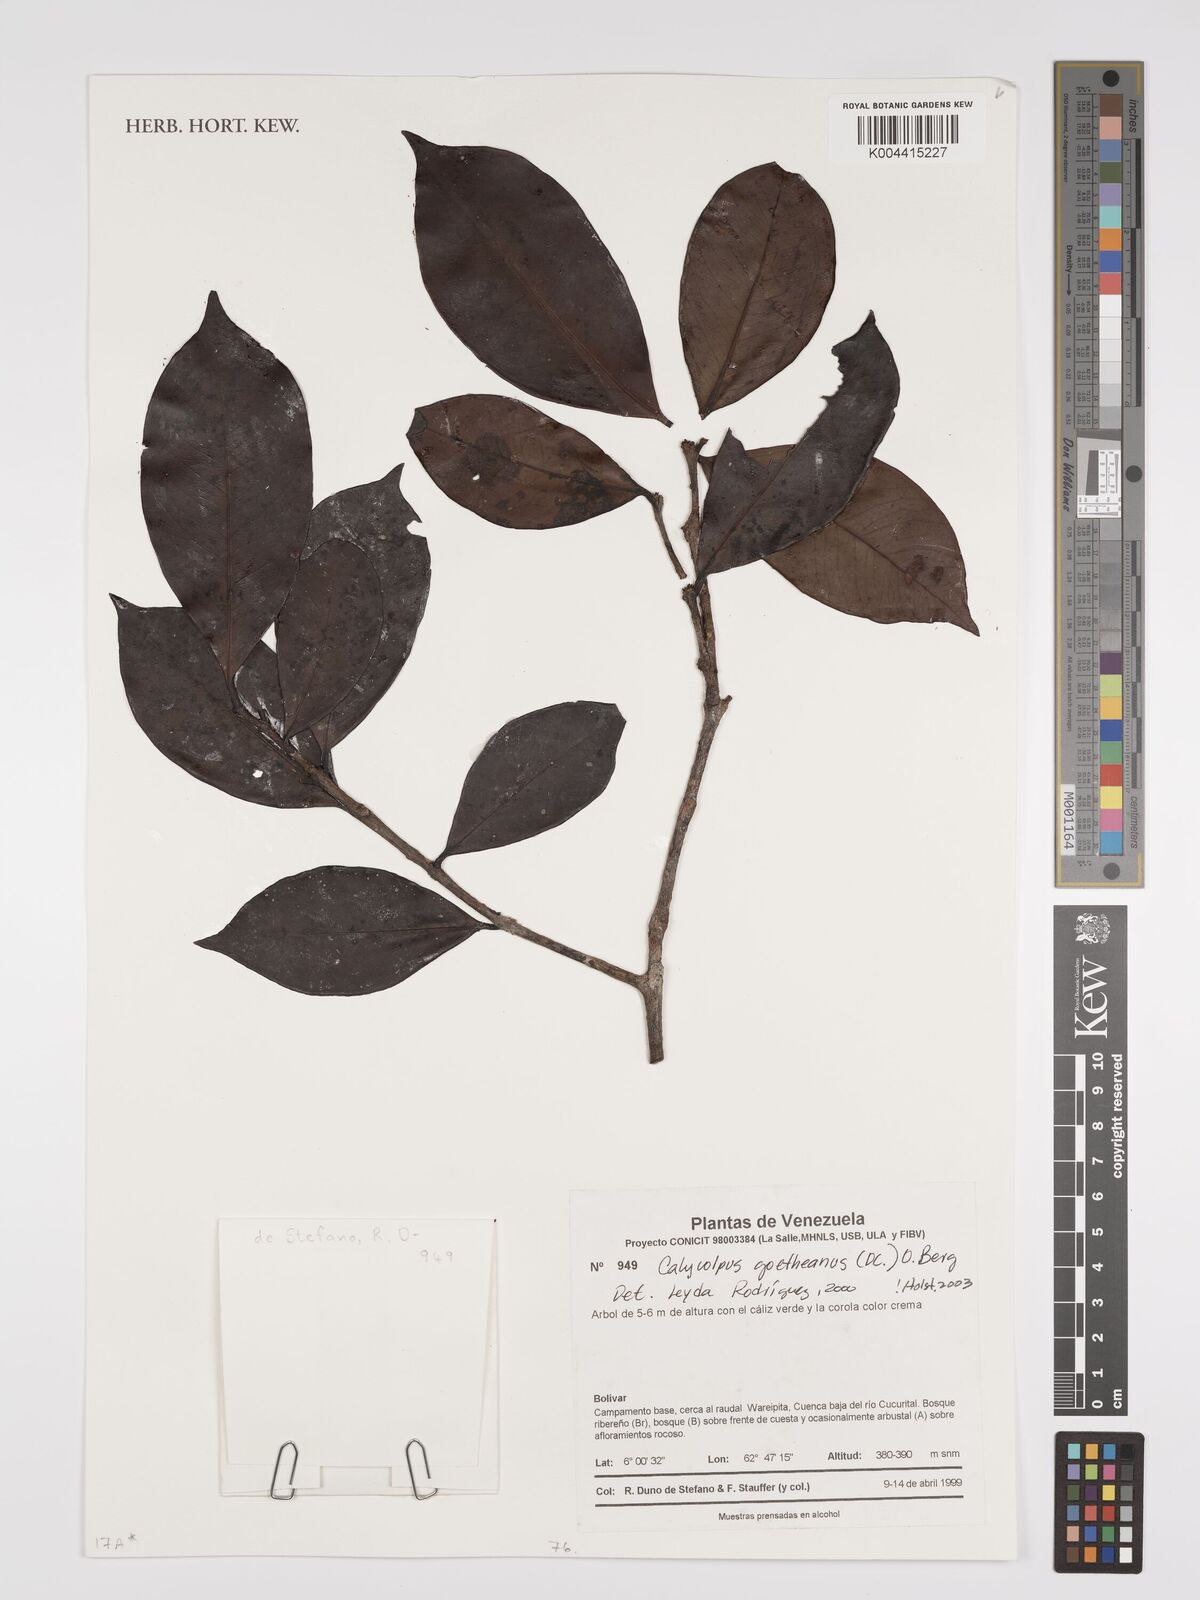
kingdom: Plantae
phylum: Tracheophyta
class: Magnoliopsida
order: Myrtales
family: Myrtaceae
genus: Calycolpus
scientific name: Calycolpus goetheanus
